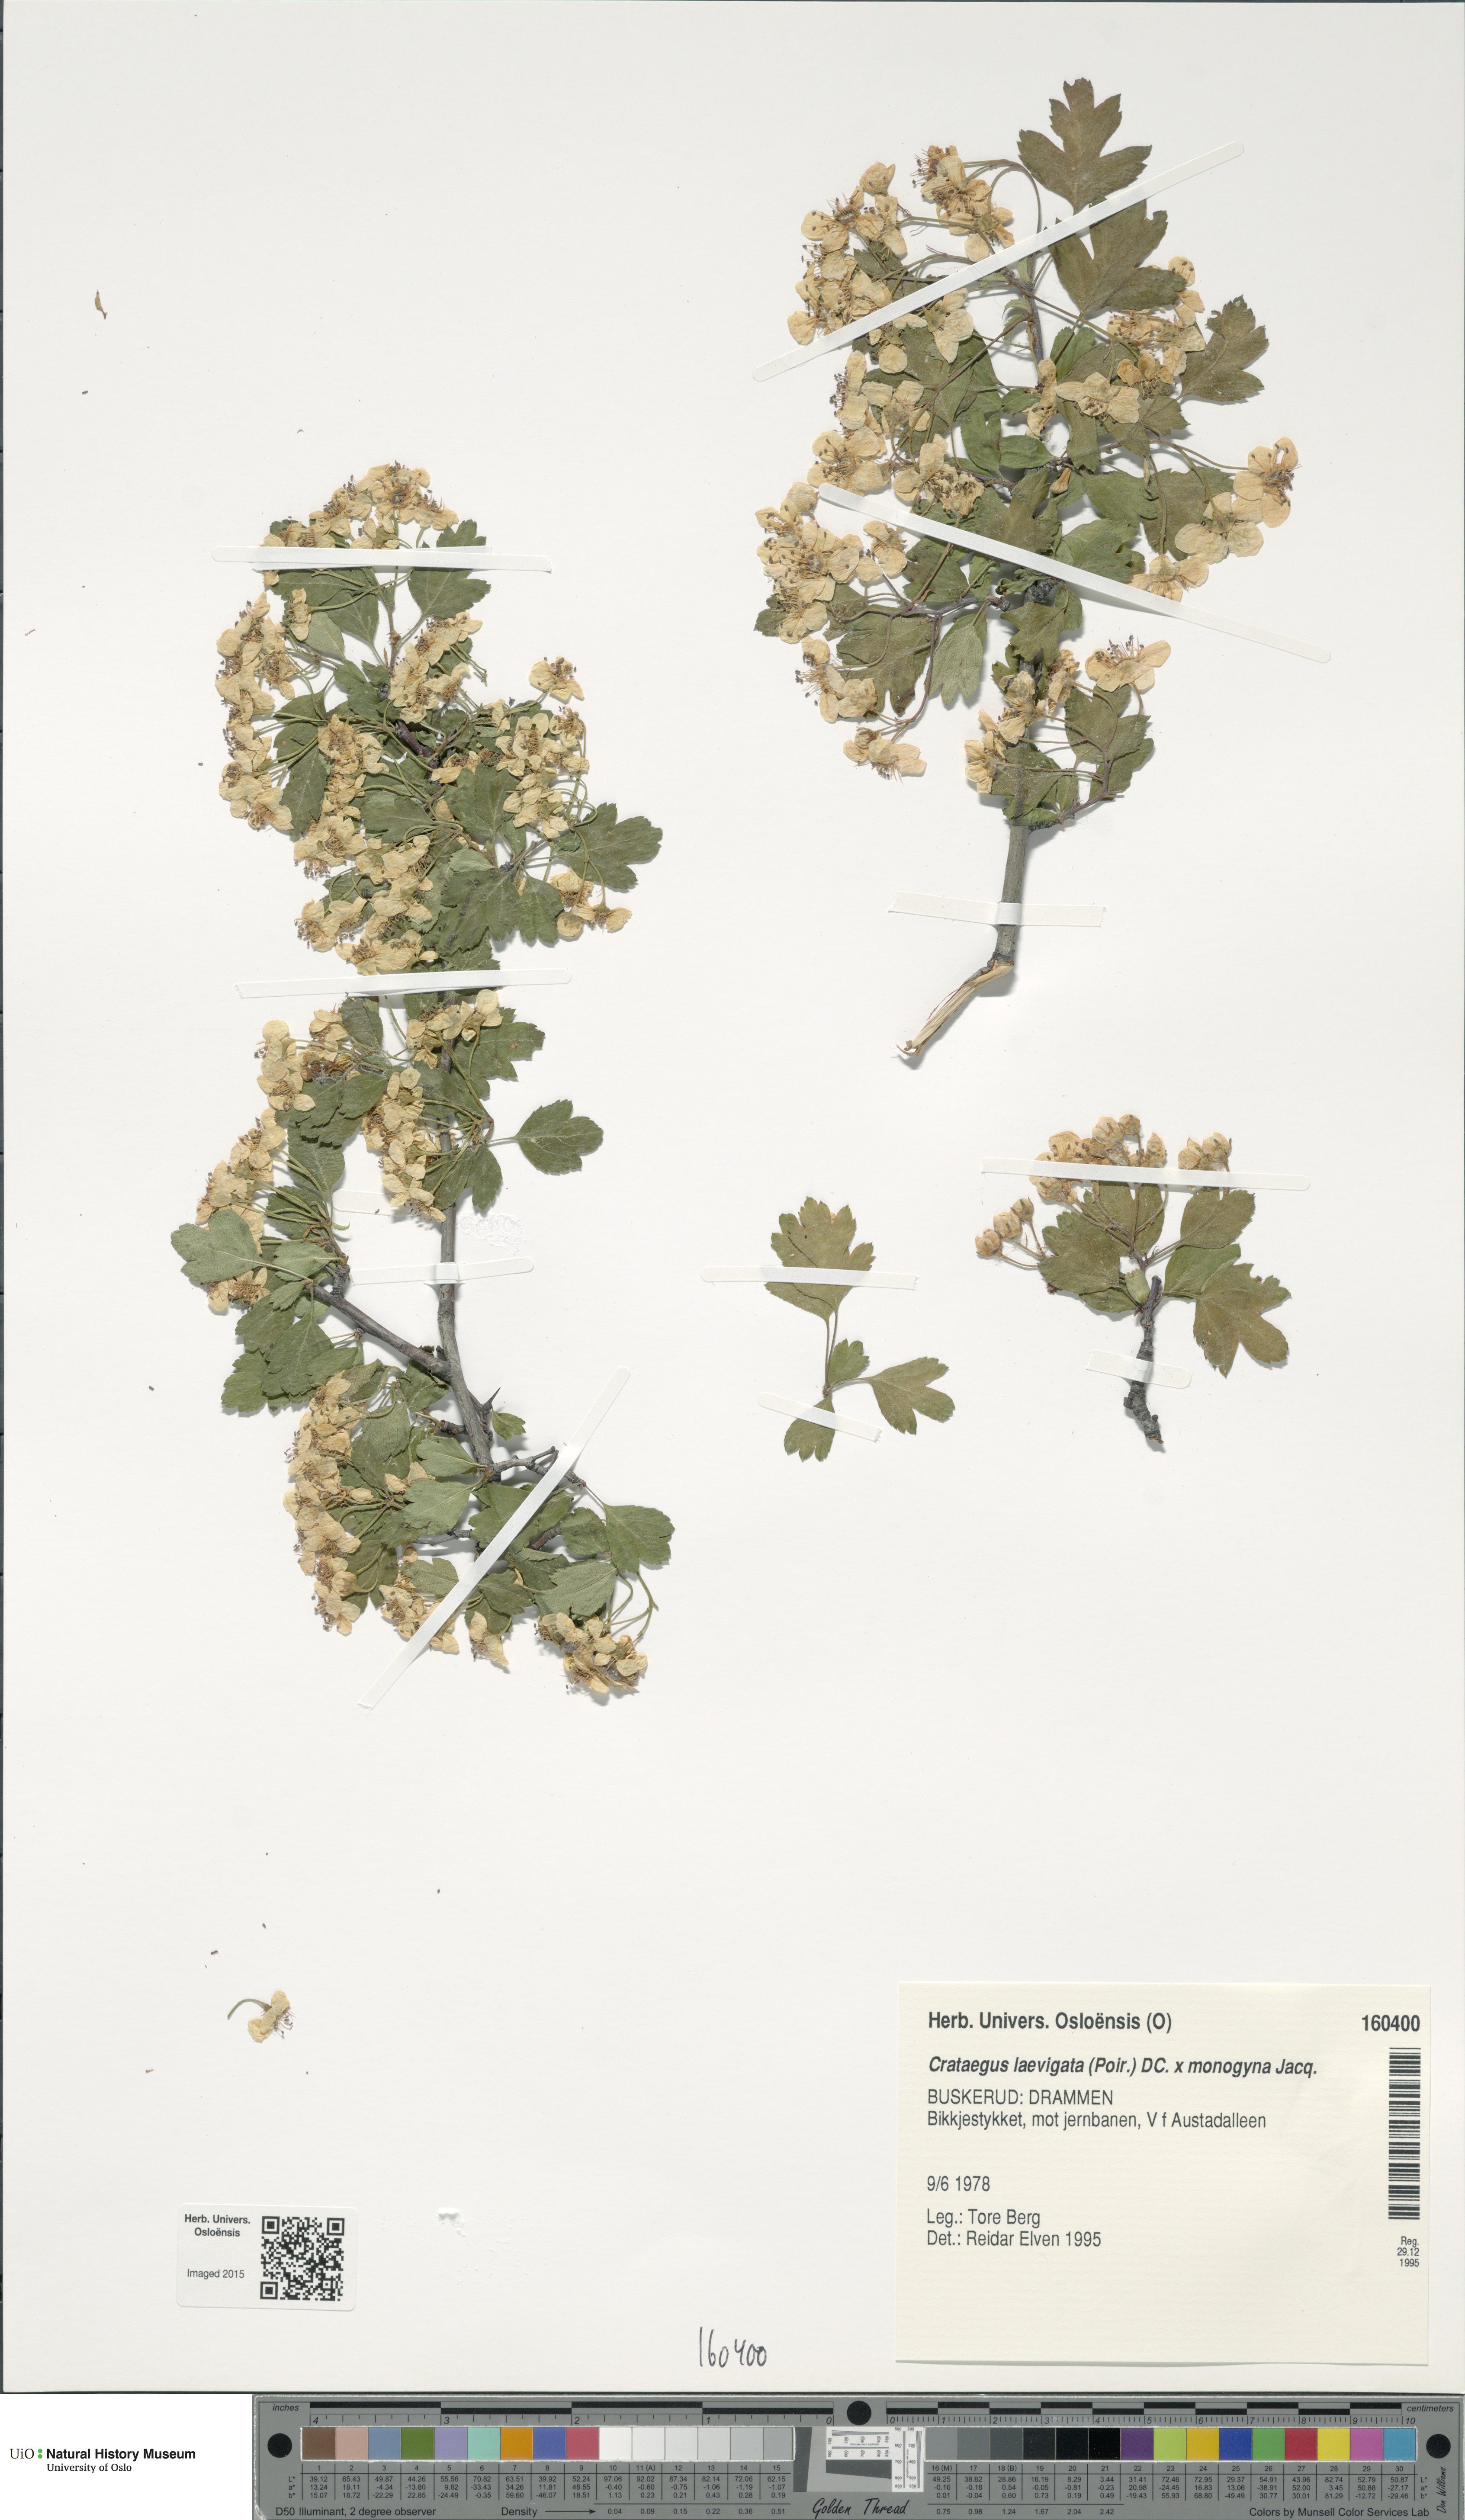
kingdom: Plantae
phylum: Tracheophyta
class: Magnoliopsida
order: Rosales
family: Rosaceae
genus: Crataegus
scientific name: Crataegus
